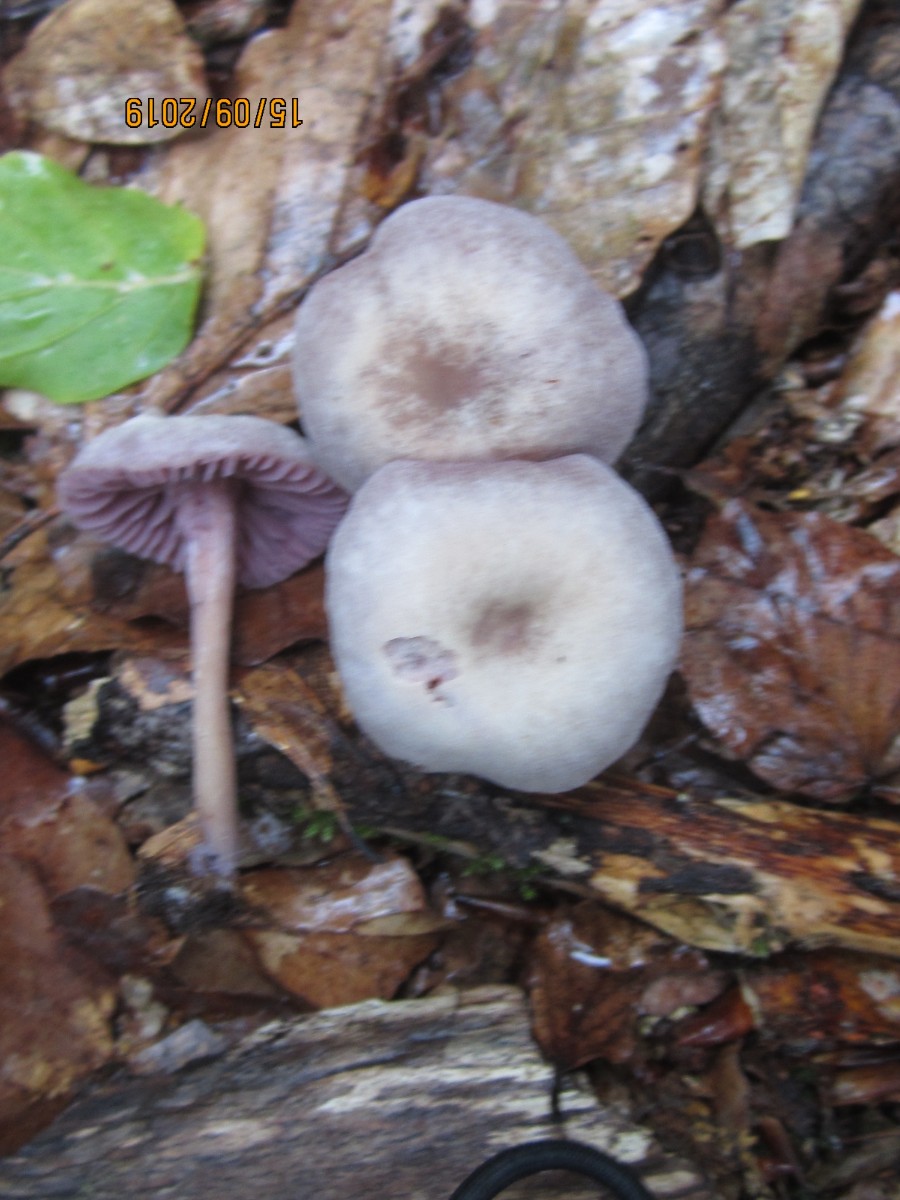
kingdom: Fungi
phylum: Basidiomycota
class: Agaricomycetes
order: Agaricales
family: Hydnangiaceae
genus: Laccaria
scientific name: Laccaria amethystina
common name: violet ametysthat
